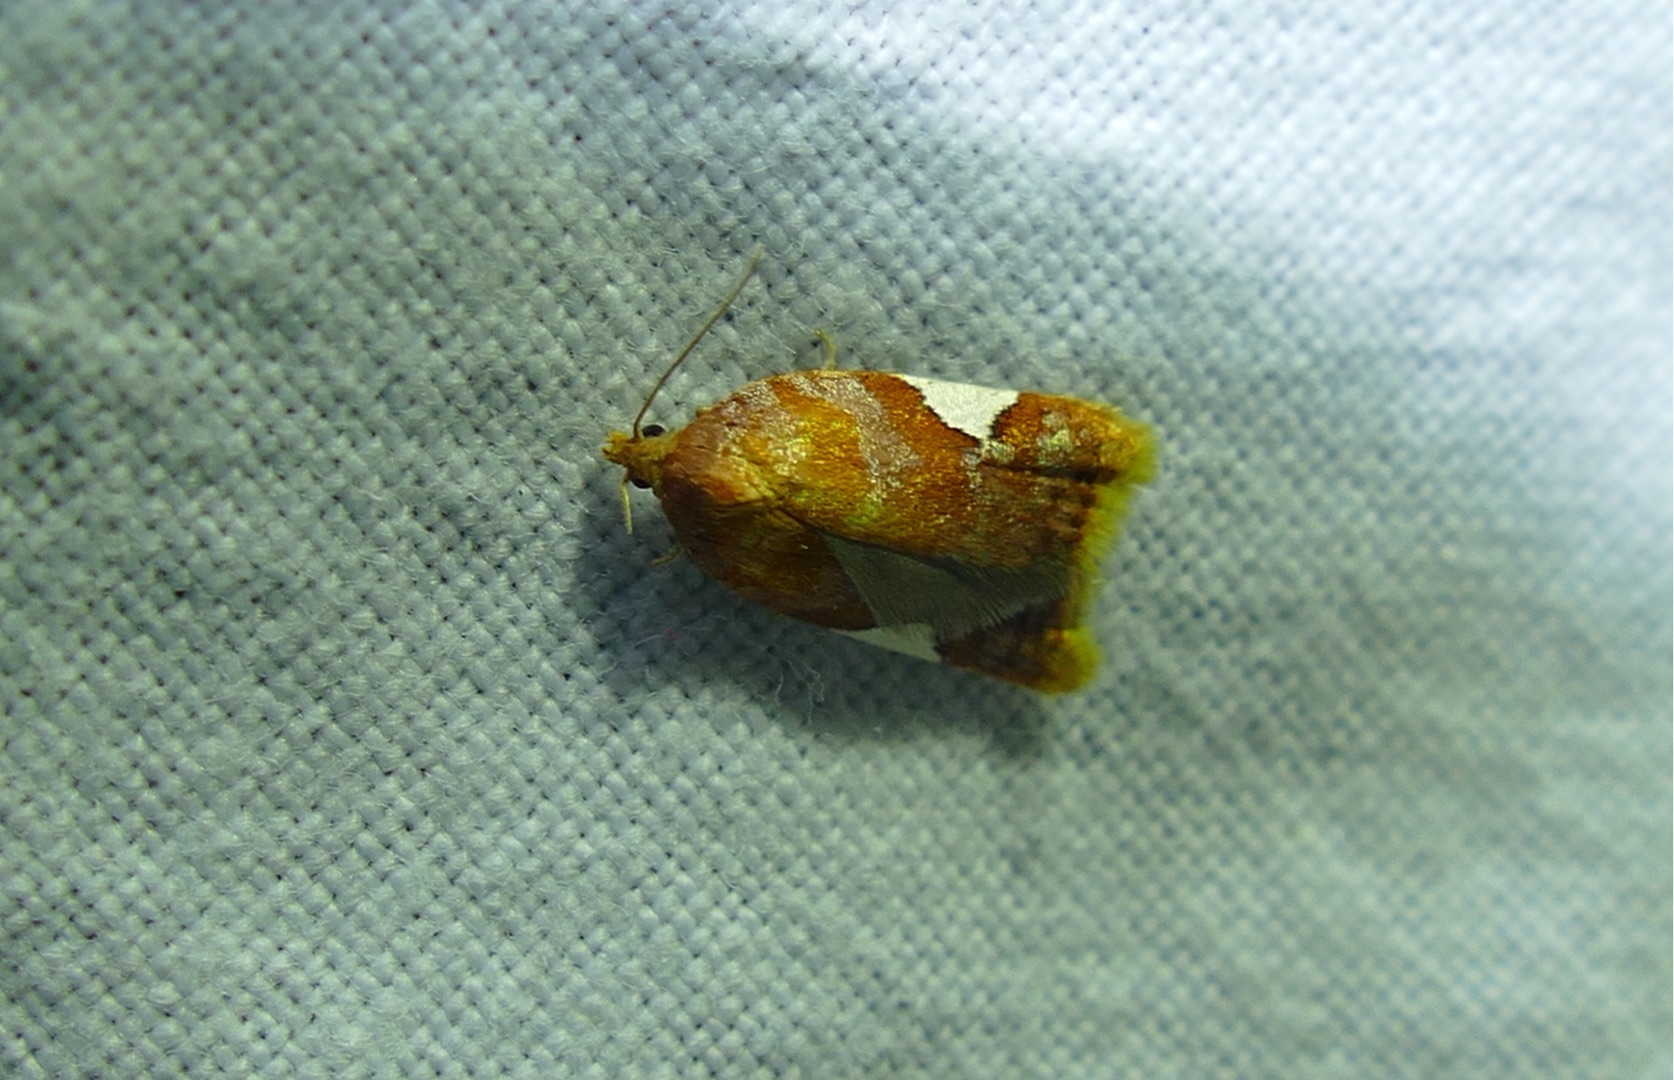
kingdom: Animalia
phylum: Arthropoda
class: Insecta
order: Lepidoptera
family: Tortricidae
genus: Acleris
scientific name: Acleris holmiana
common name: Bladrandvikler
